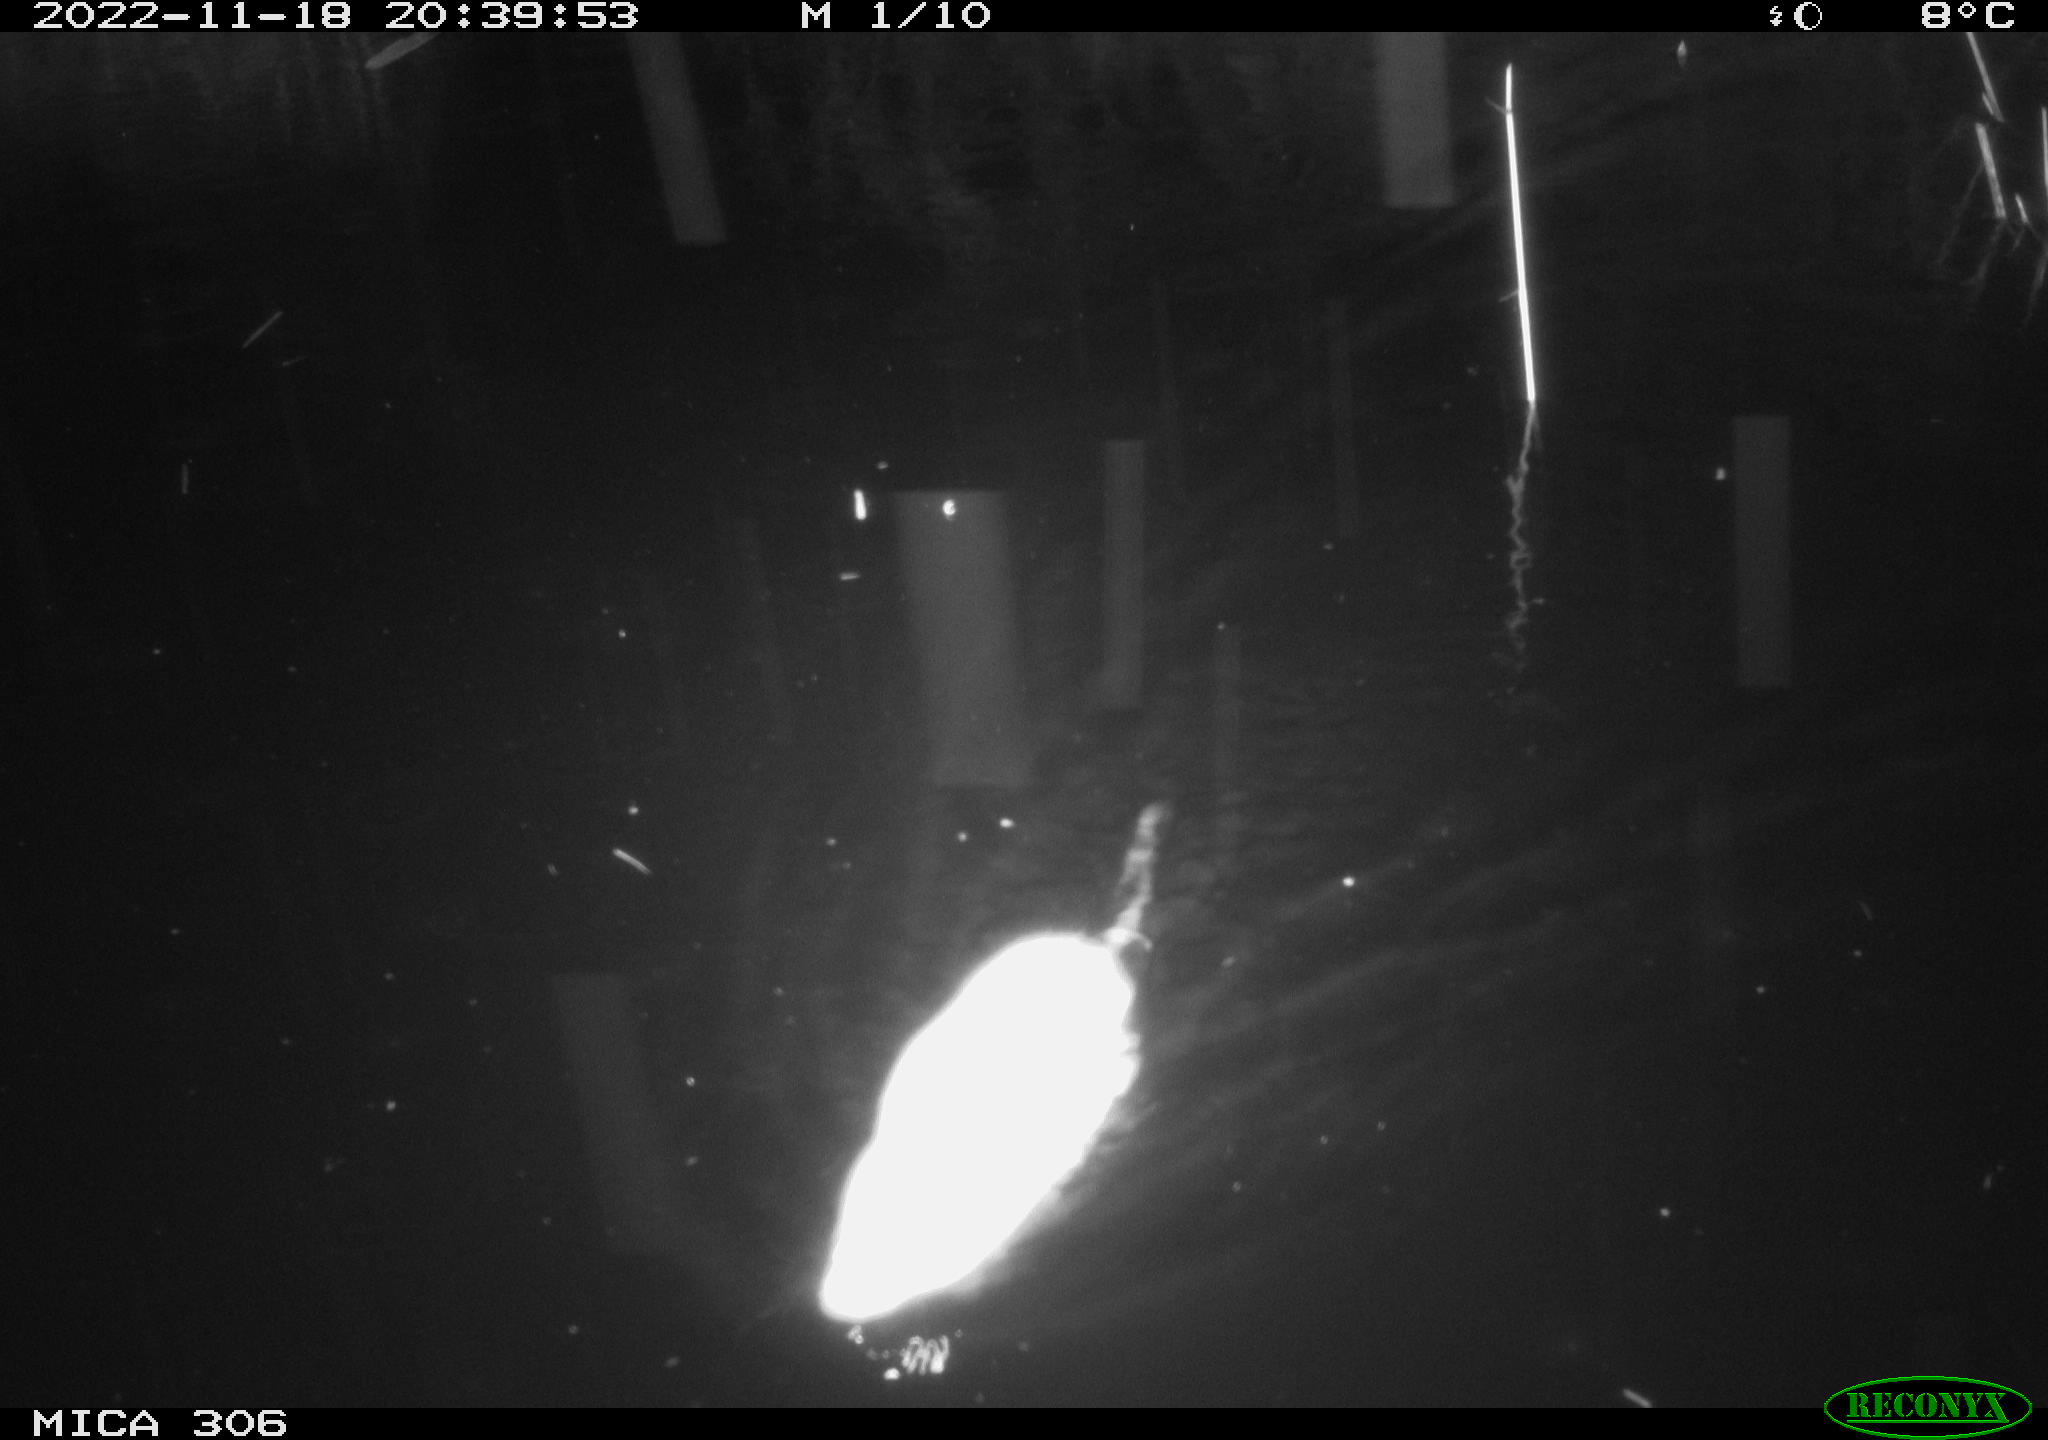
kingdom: Animalia
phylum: Chordata
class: Mammalia
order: Rodentia
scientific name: Rodentia
